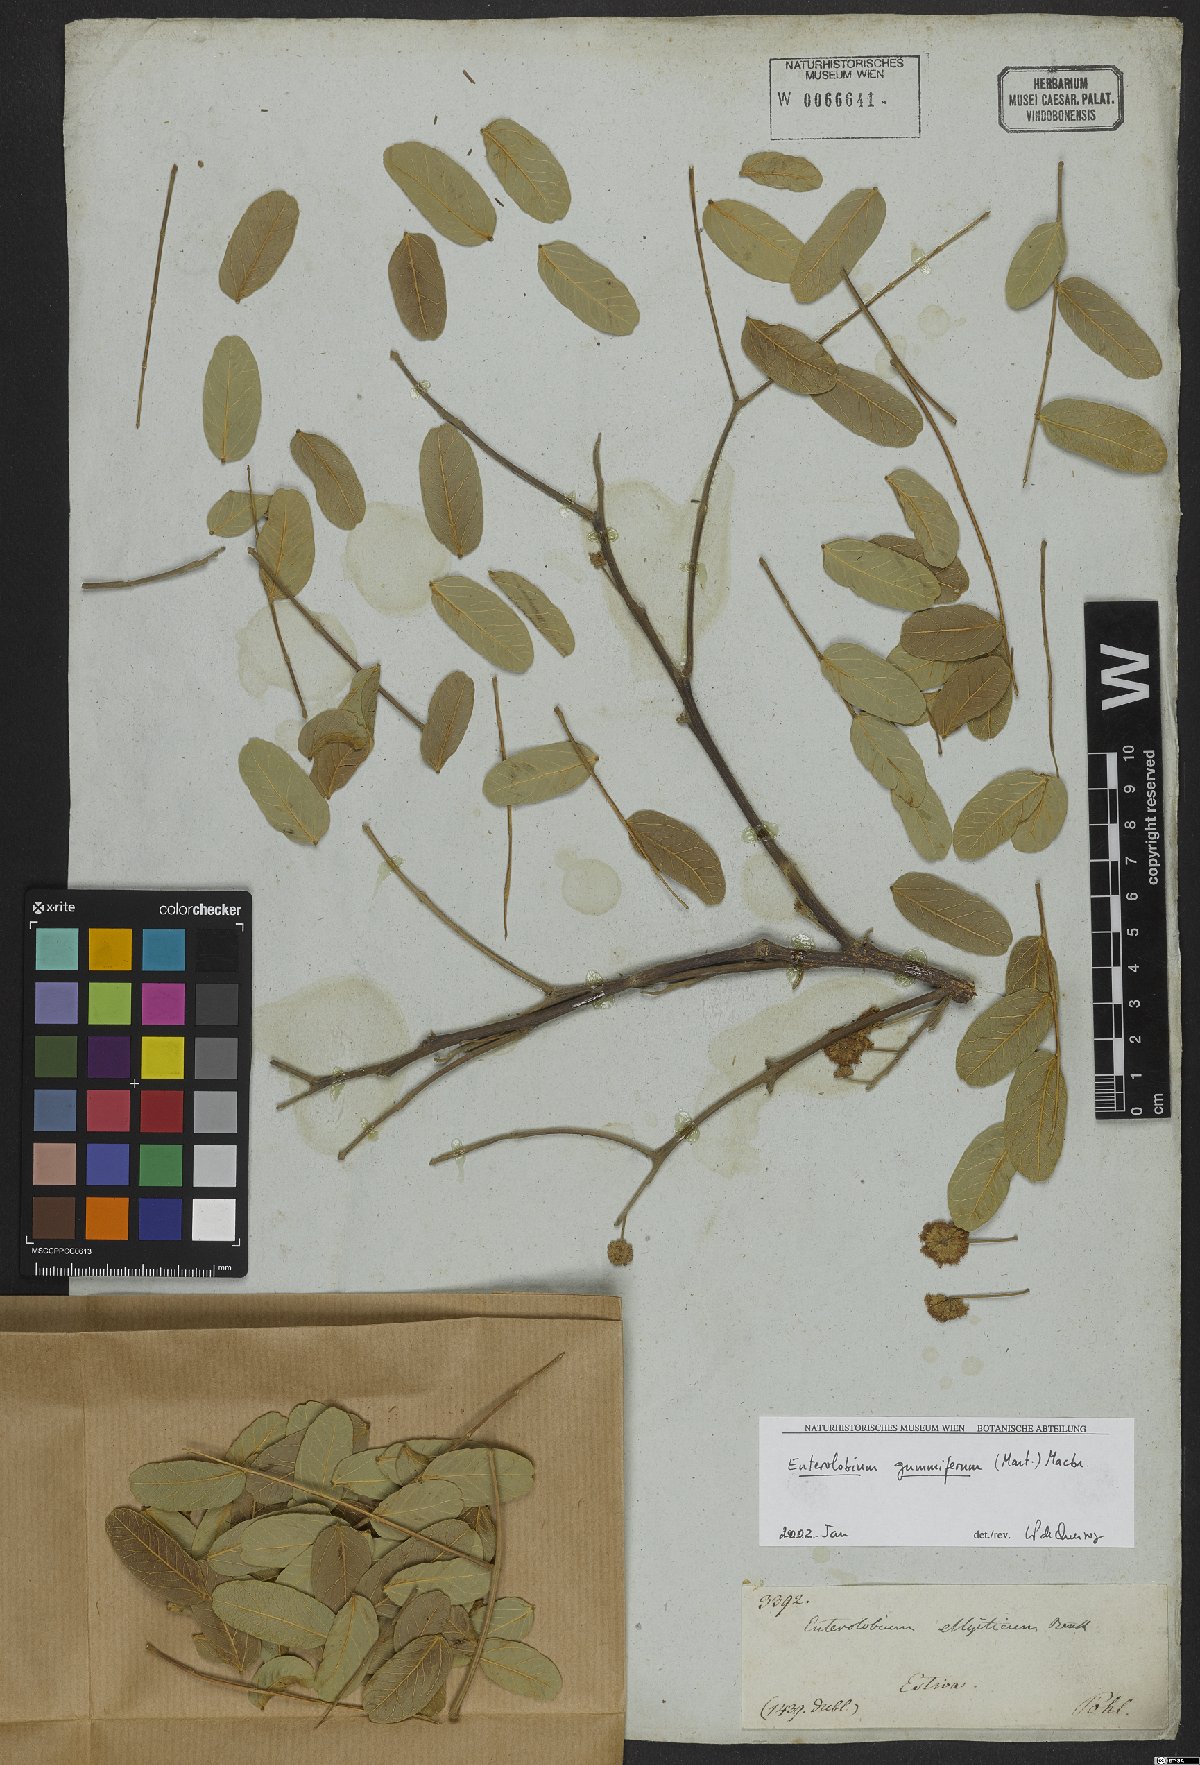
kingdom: Plantae
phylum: Tracheophyta
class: Magnoliopsida
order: Fabales
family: Fabaceae
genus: Enterolobium
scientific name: Enterolobium gummiferum
